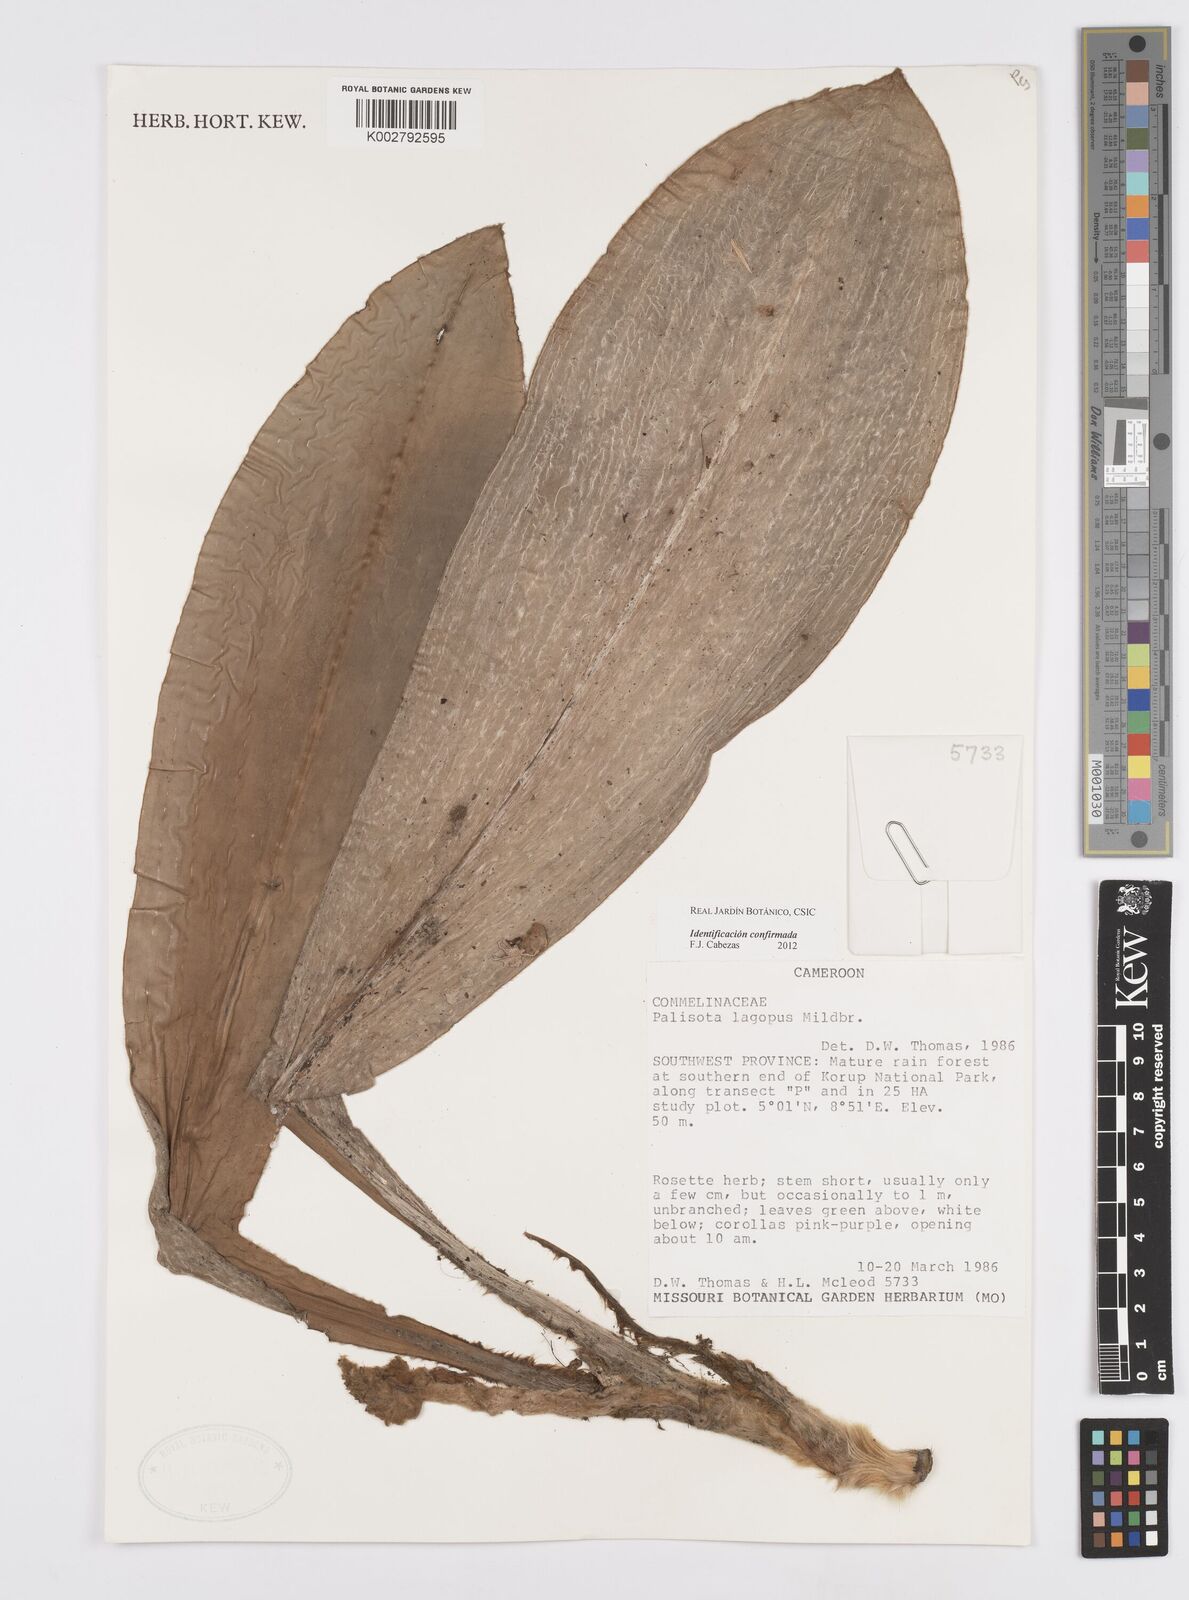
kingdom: Plantae
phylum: Tracheophyta
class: Liliopsida
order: Commelinales
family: Commelinaceae
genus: Palisota
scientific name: Palisota lagopus
